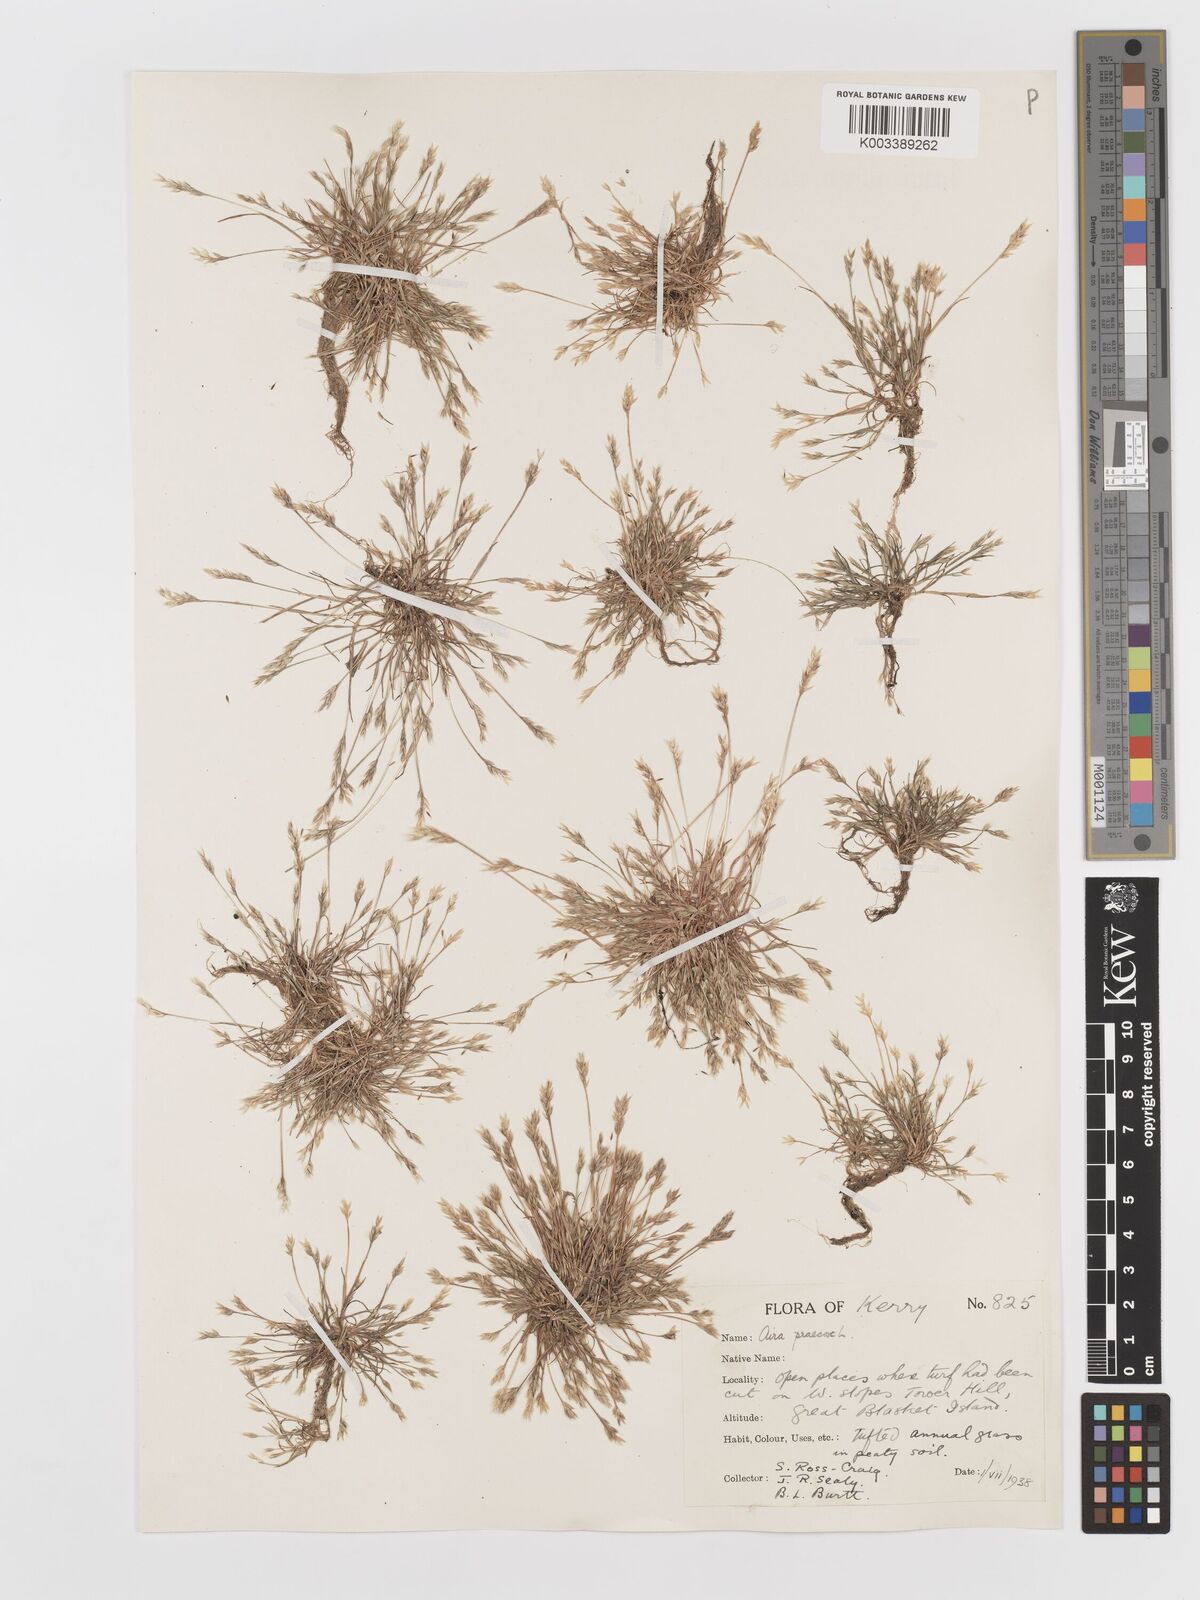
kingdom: Plantae
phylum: Tracheophyta
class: Liliopsida
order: Poales
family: Poaceae
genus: Aira
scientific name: Aira praecox
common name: Early hair-grass
